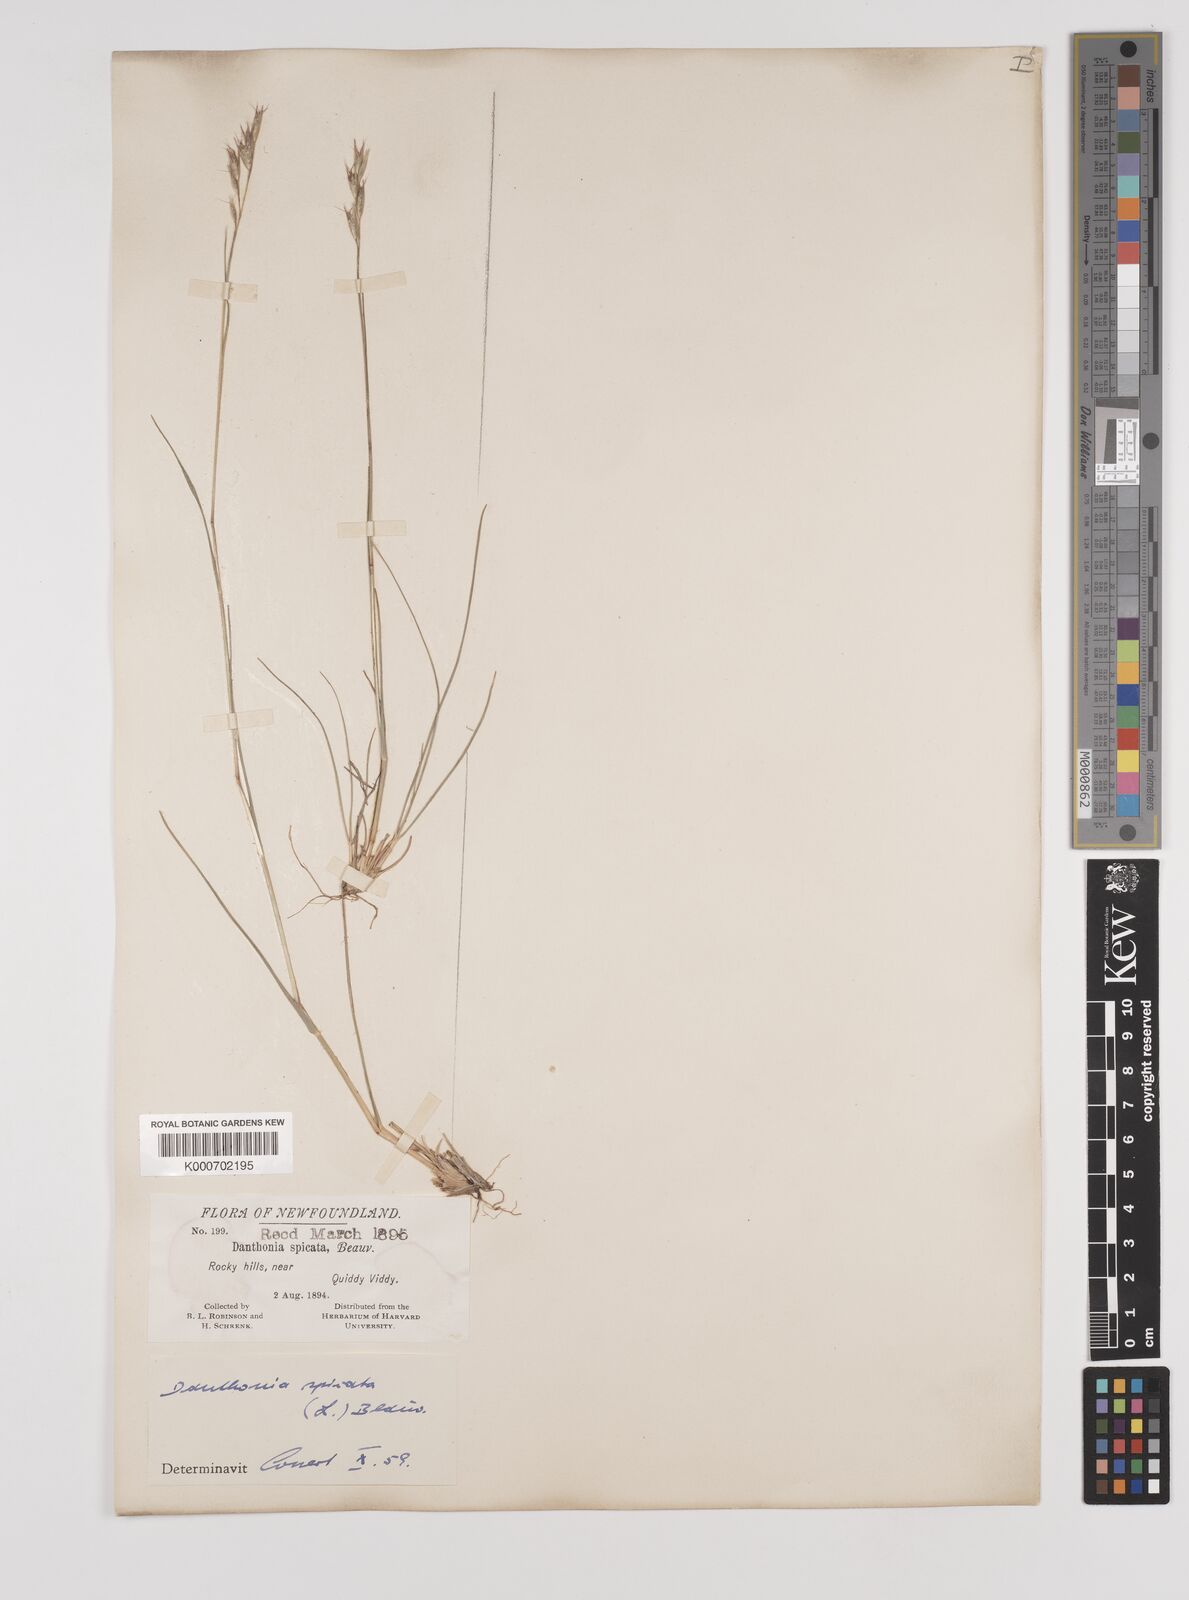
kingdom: Plantae
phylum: Tracheophyta
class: Liliopsida
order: Poales
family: Poaceae
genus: Danthonia
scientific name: Danthonia spicata
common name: Common wild oatgrass
